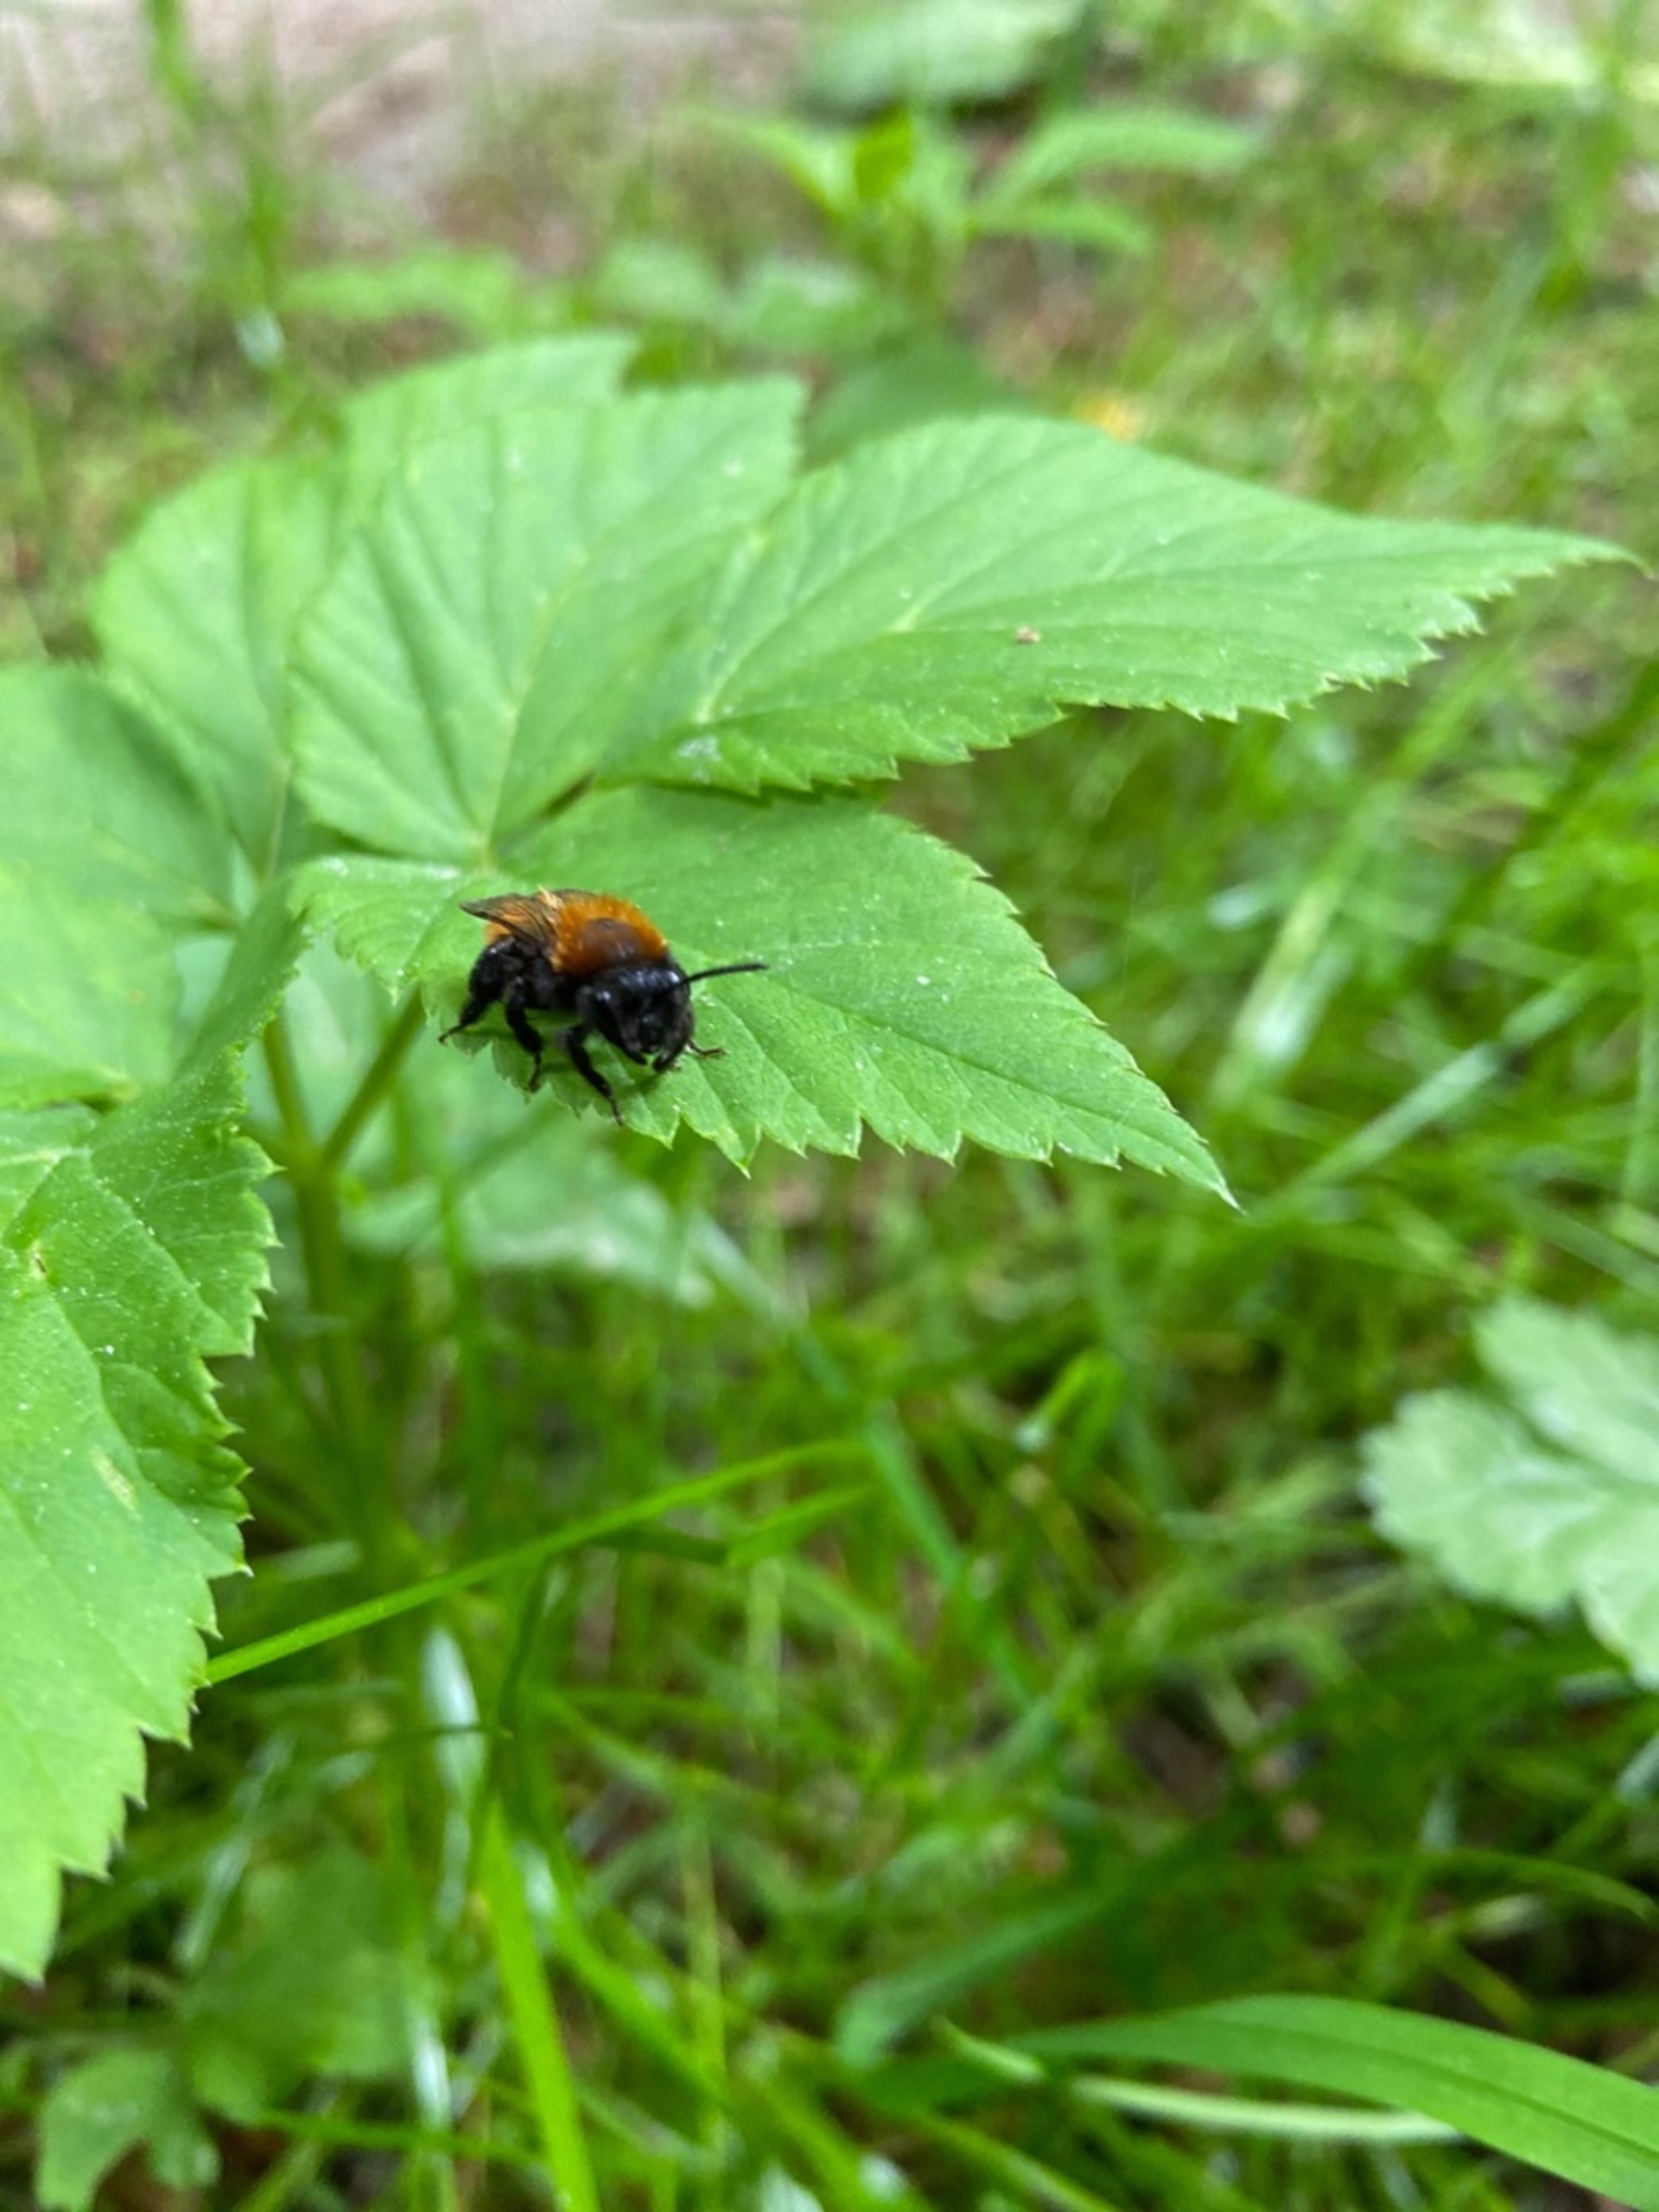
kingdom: Animalia
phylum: Arthropoda
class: Insecta
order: Hymenoptera
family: Andrenidae
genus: Andrena
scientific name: Andrena fulva
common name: Rødpelset jordbi
